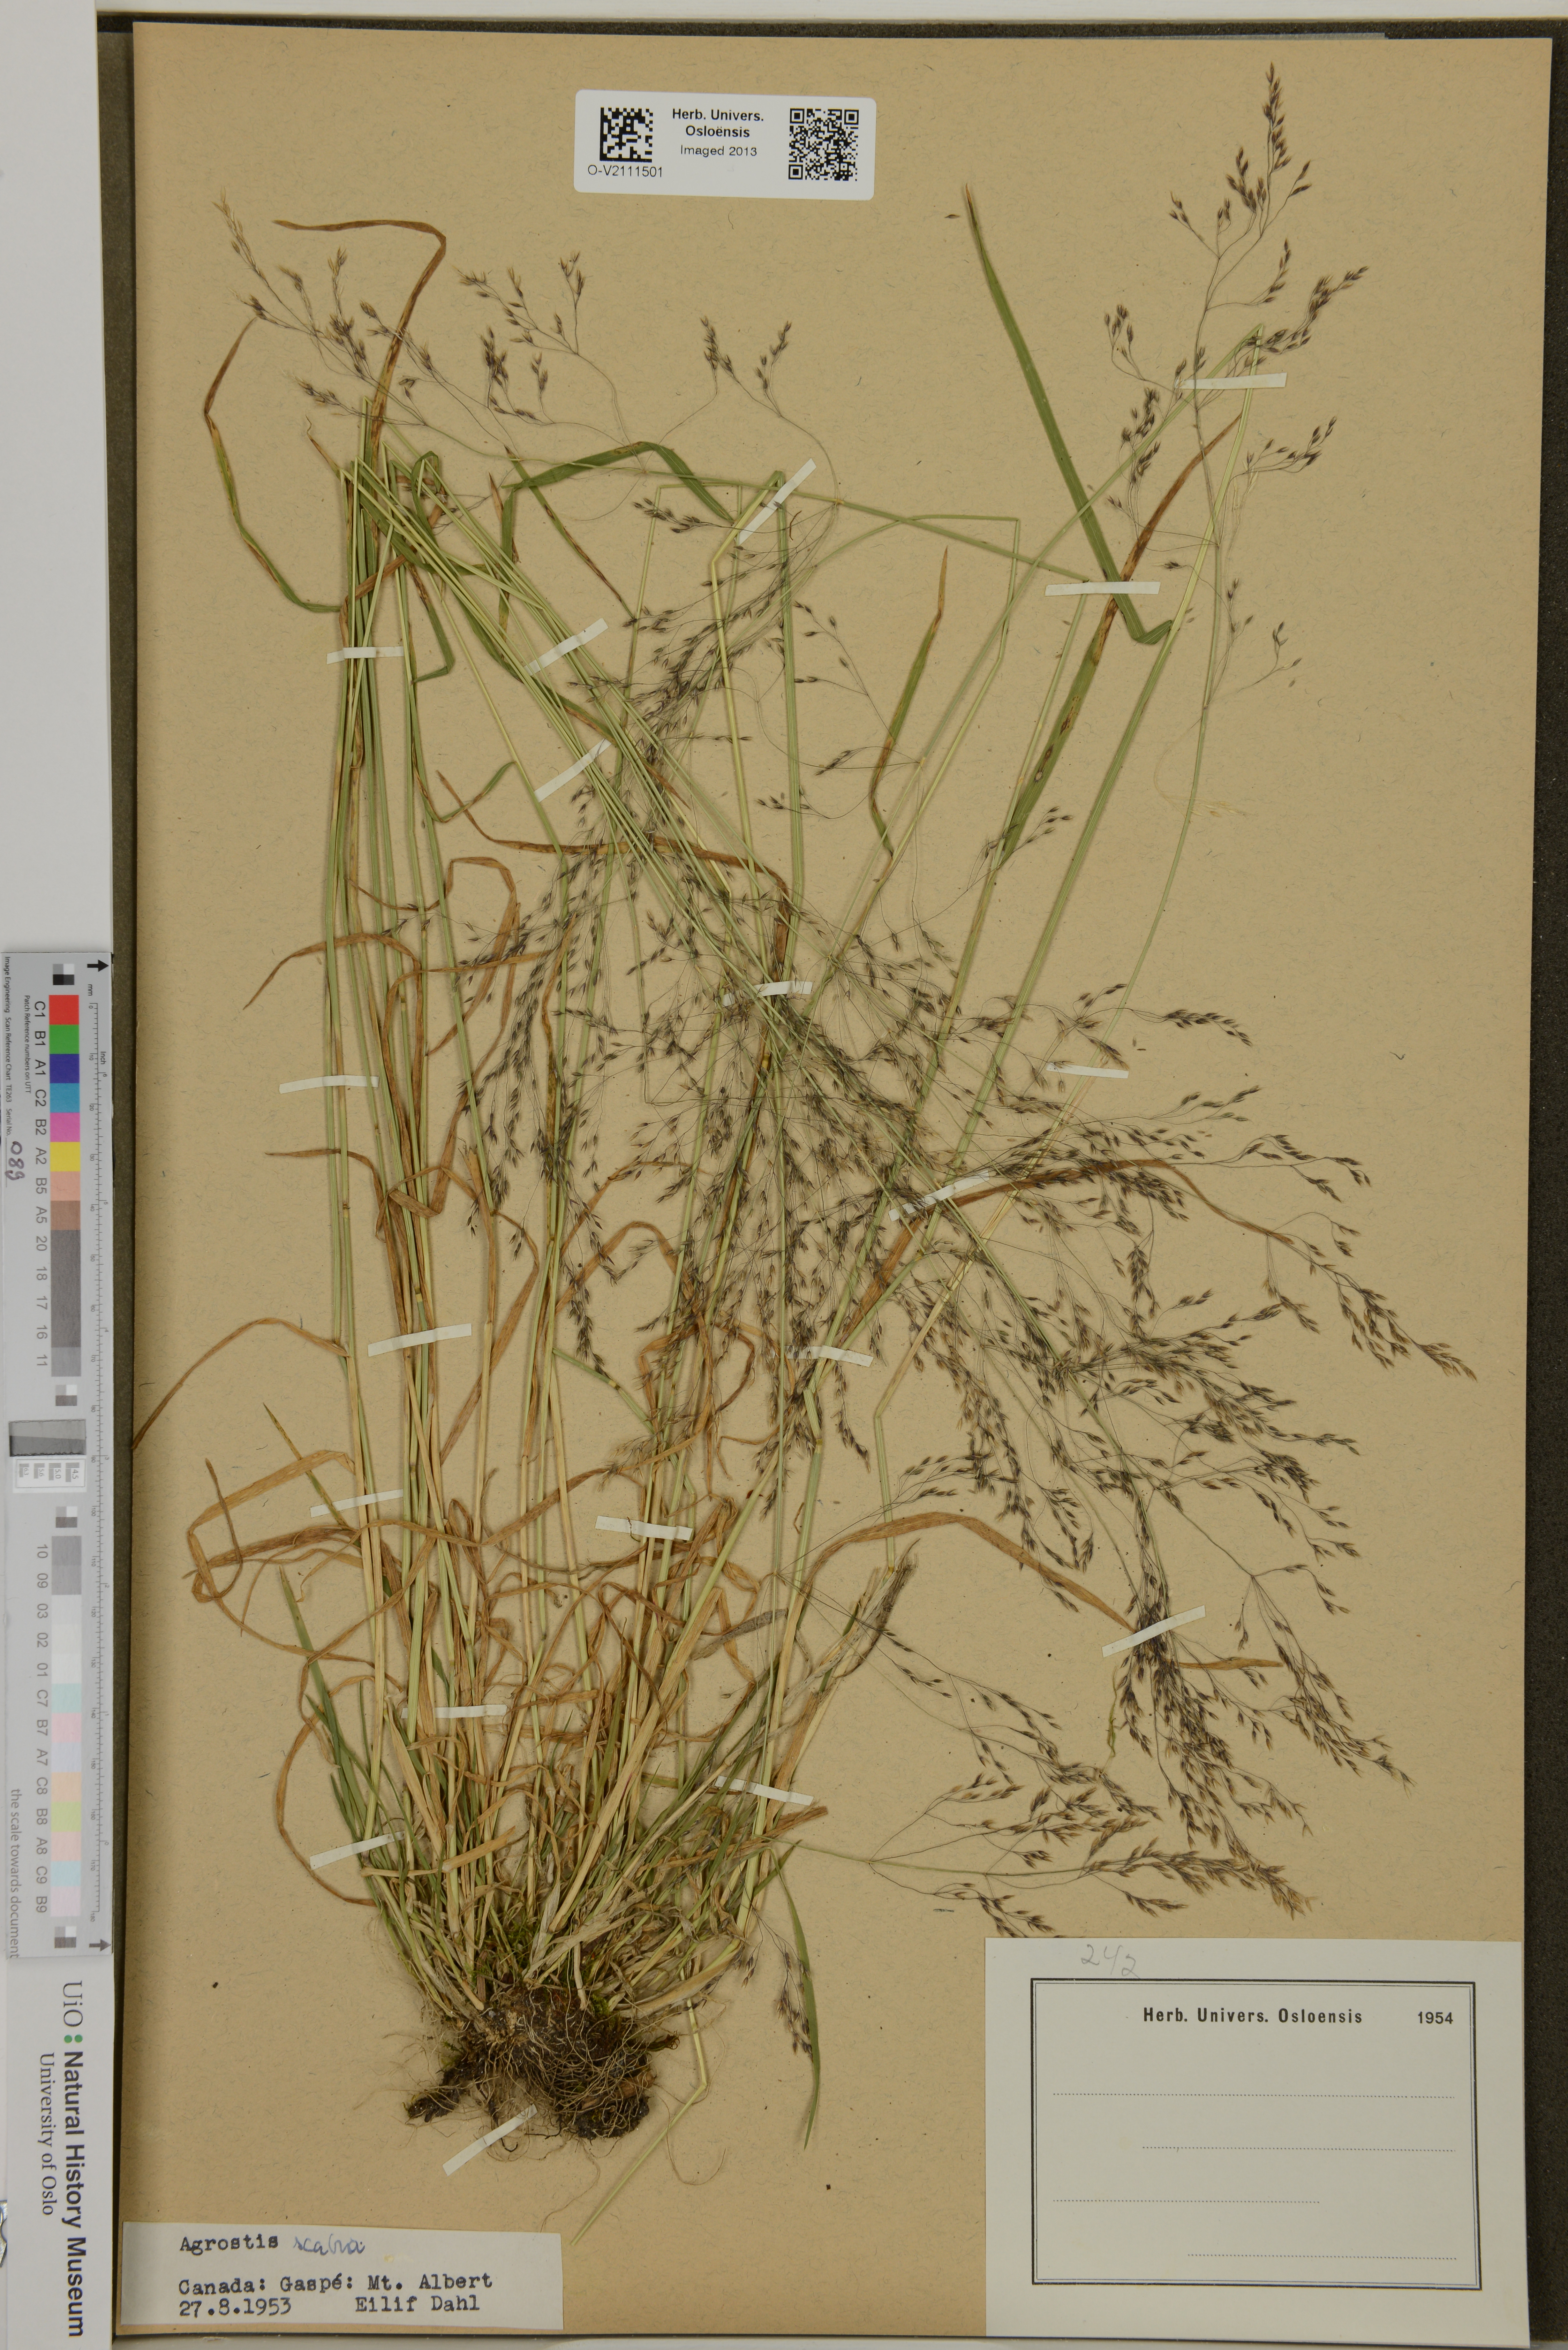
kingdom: Plantae
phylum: Tracheophyta
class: Liliopsida
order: Poales
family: Poaceae
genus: Agrostis
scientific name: Agrostis scabra
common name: Rough bent
